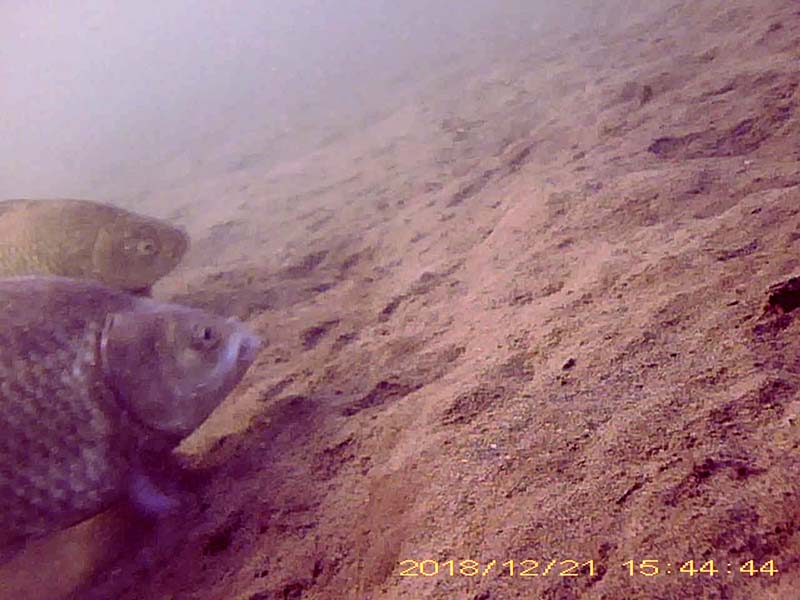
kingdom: Animalia
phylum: Chordata
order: Cypriniformes
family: Cyprinidae
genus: Carassius
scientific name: Carassius langsdorfii
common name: ギンブナ
